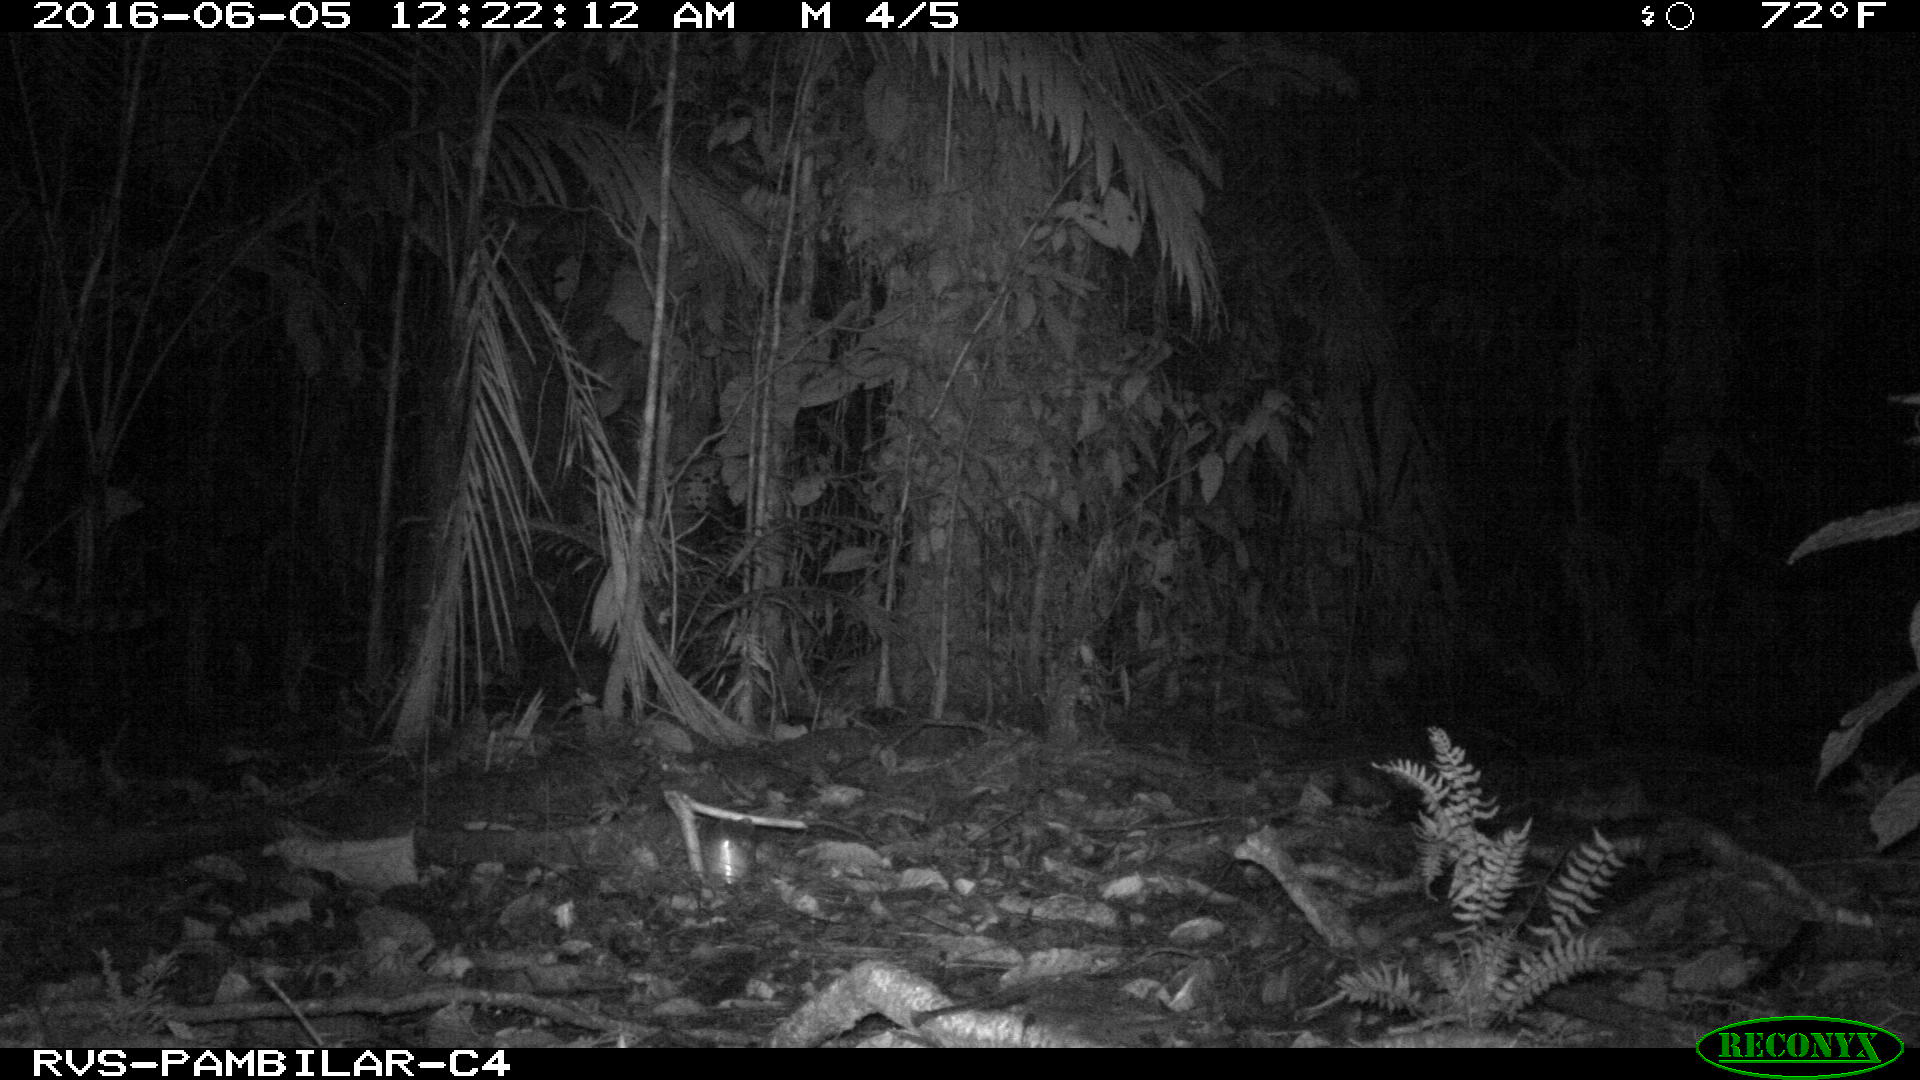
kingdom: Animalia
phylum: Chordata
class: Mammalia
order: Carnivora
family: Felidae
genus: Leopardus
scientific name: Leopardus pardalis
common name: Ocelot
